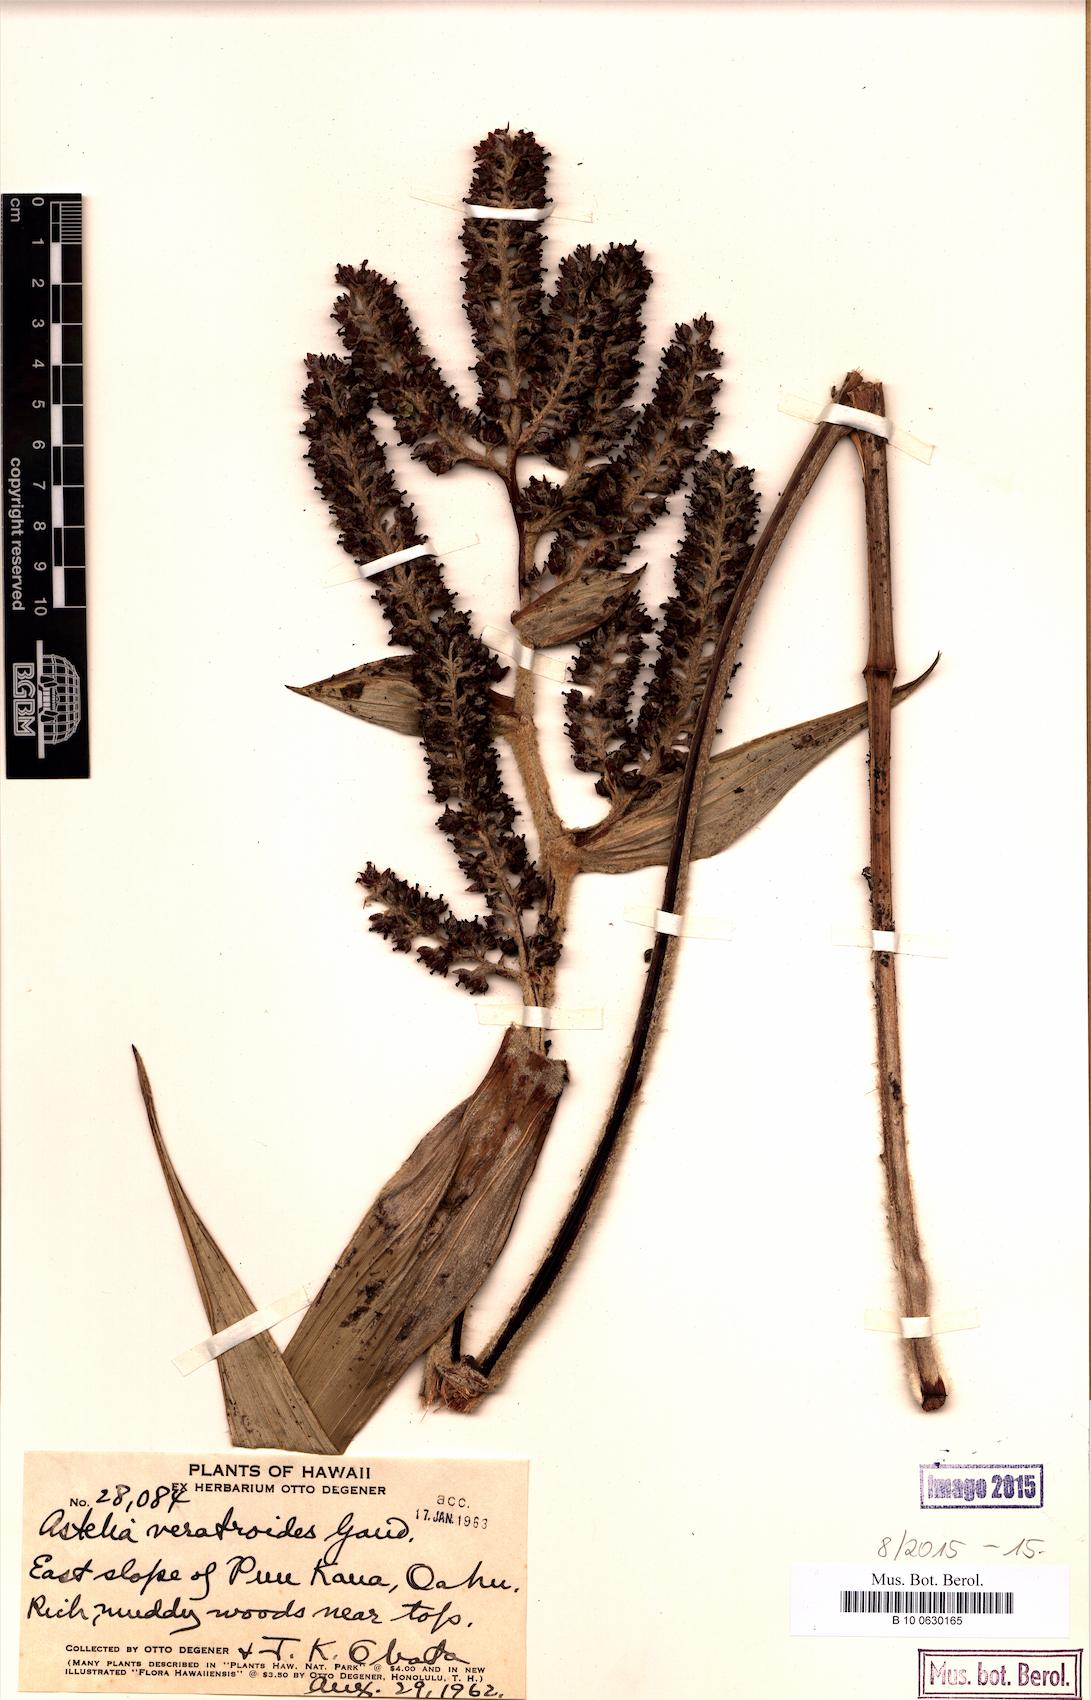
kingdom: Plantae
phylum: Tracheophyta
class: Liliopsida
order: Asparagales
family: Asteliaceae
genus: Astelia
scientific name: Astelia menziesiana
